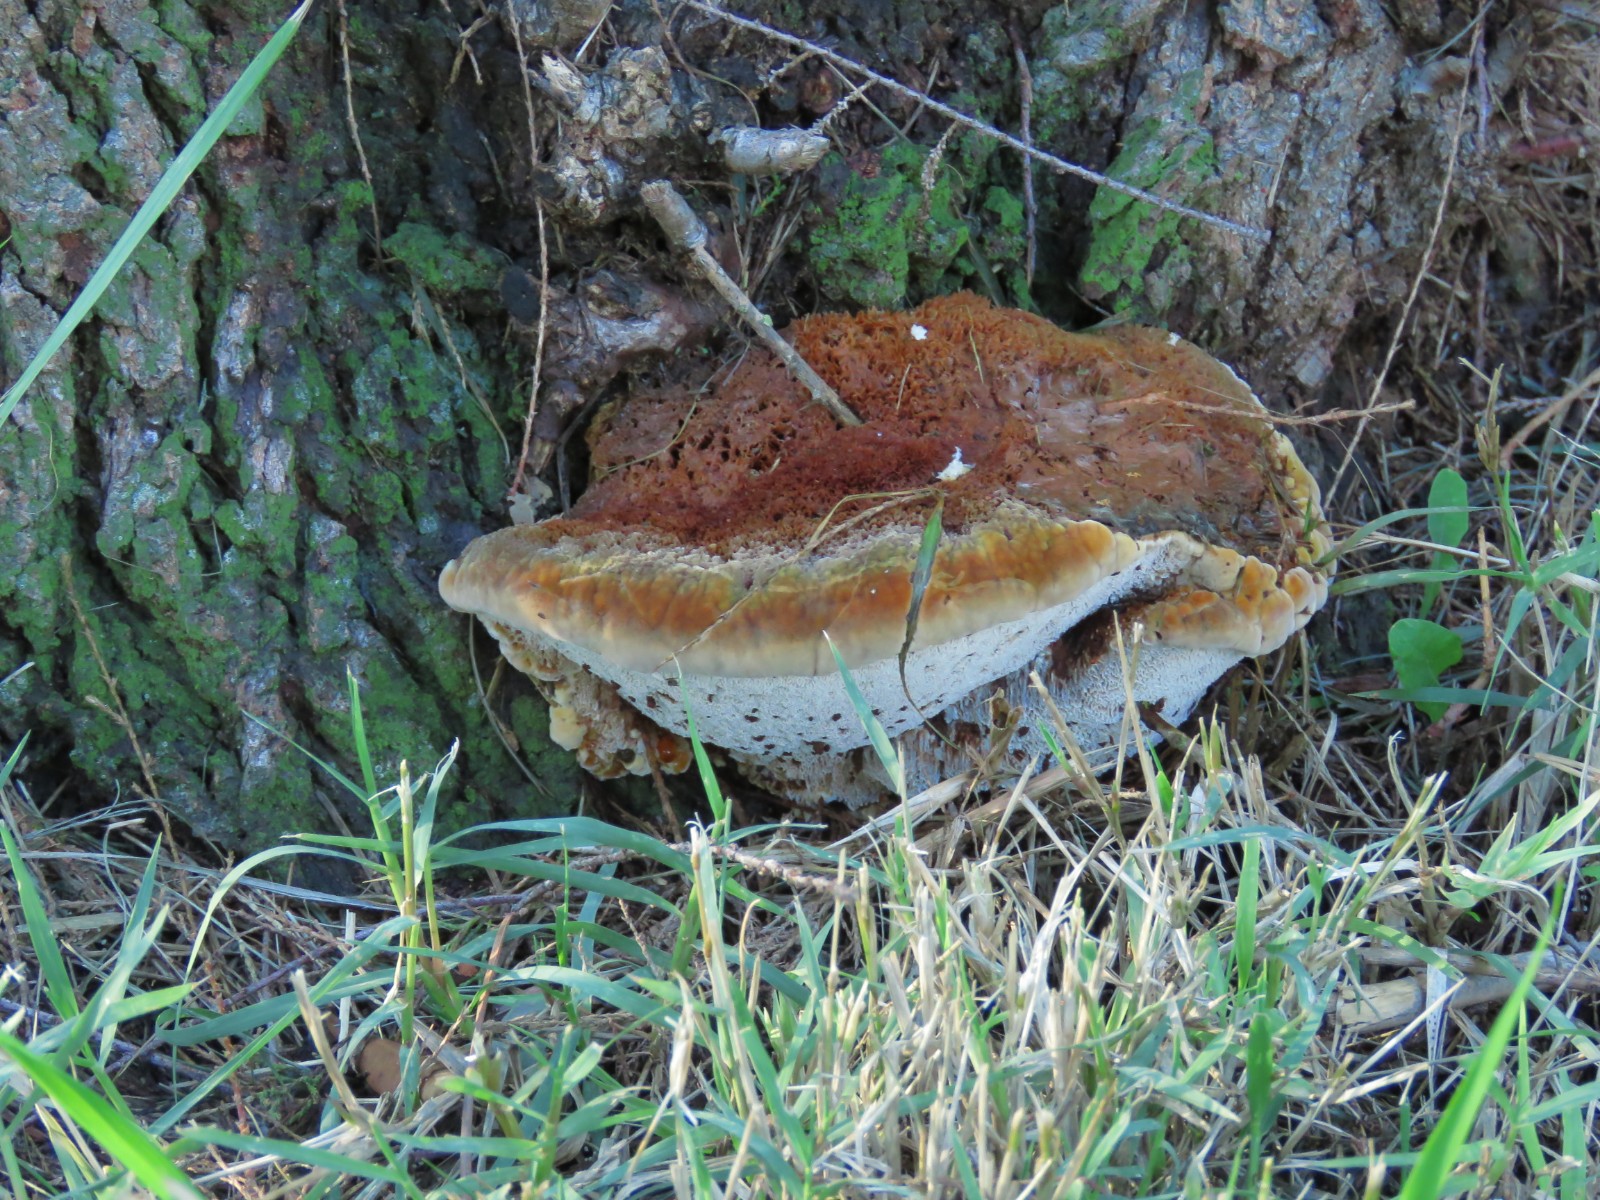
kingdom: Fungi
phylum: Basidiomycota
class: Agaricomycetes
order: Hymenochaetales
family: Hymenochaetaceae
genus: Inocutis
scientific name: Inocutis tamaricis
